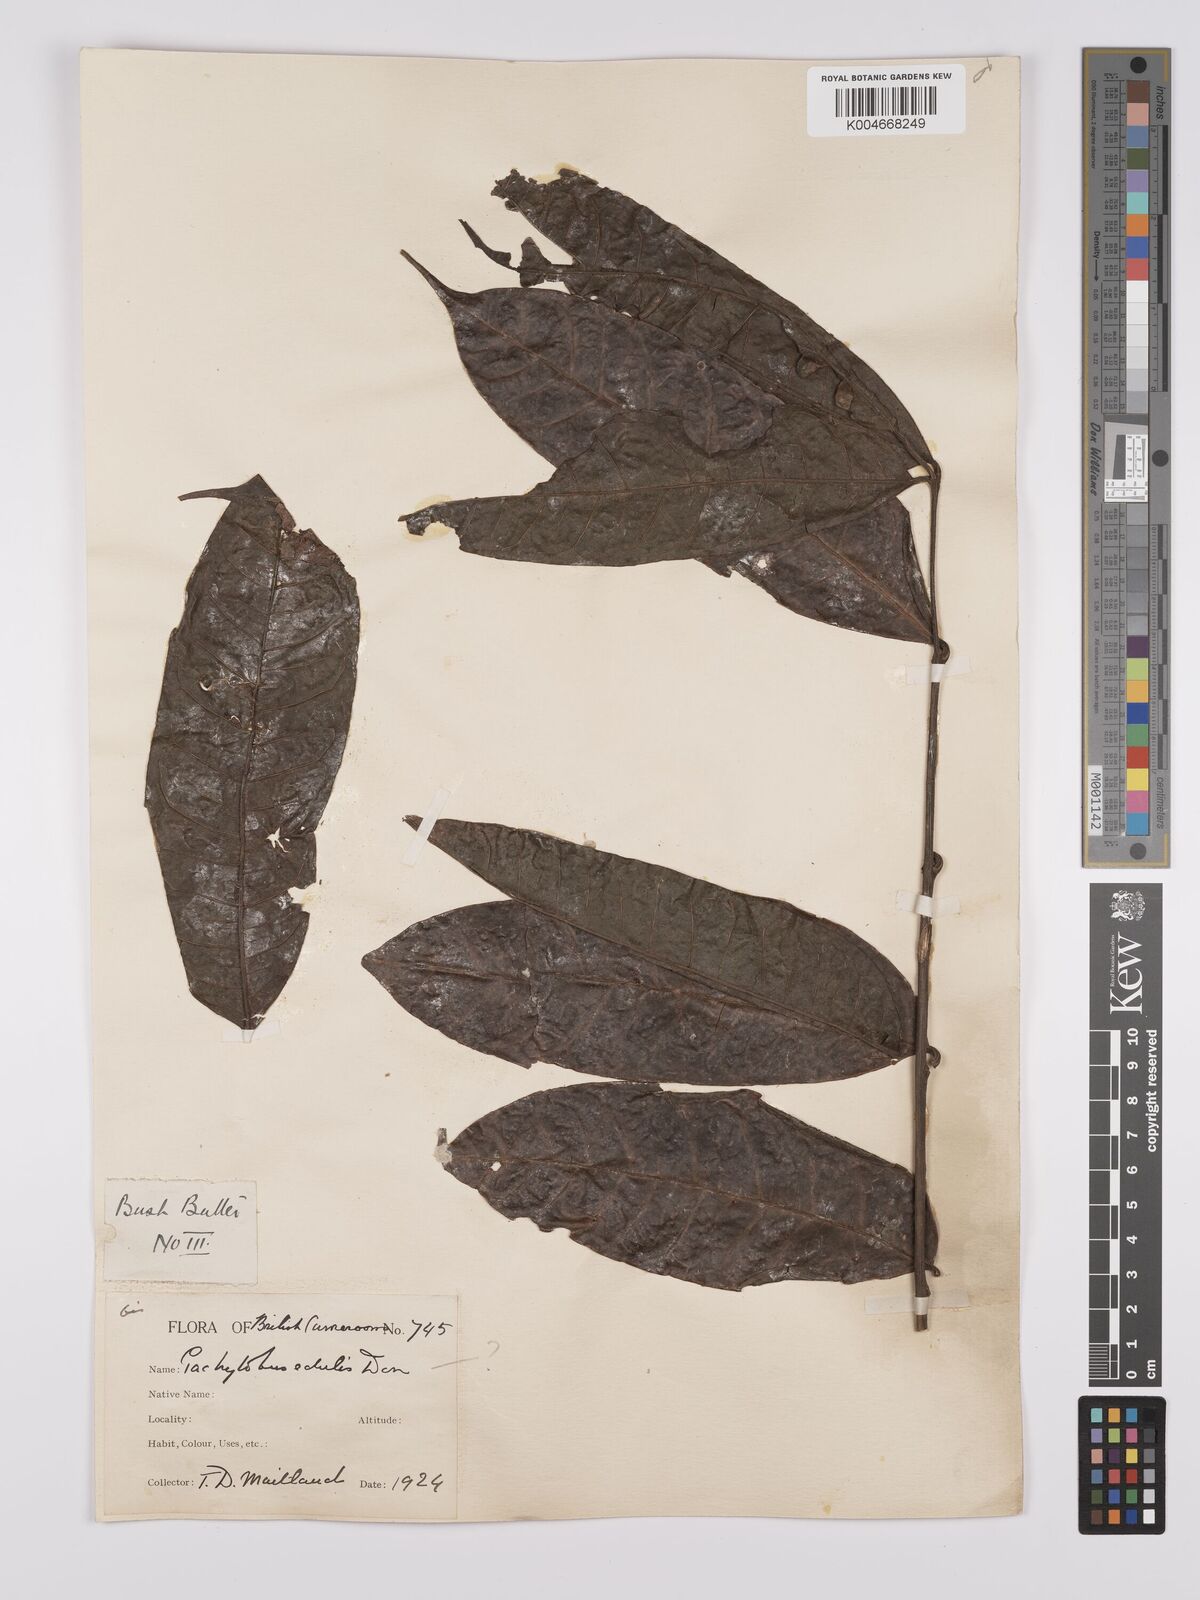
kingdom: Plantae
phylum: Tracheophyta
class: Magnoliopsida
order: Sapindales
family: Burseraceae
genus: Pachylobus
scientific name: Pachylobus edulis
